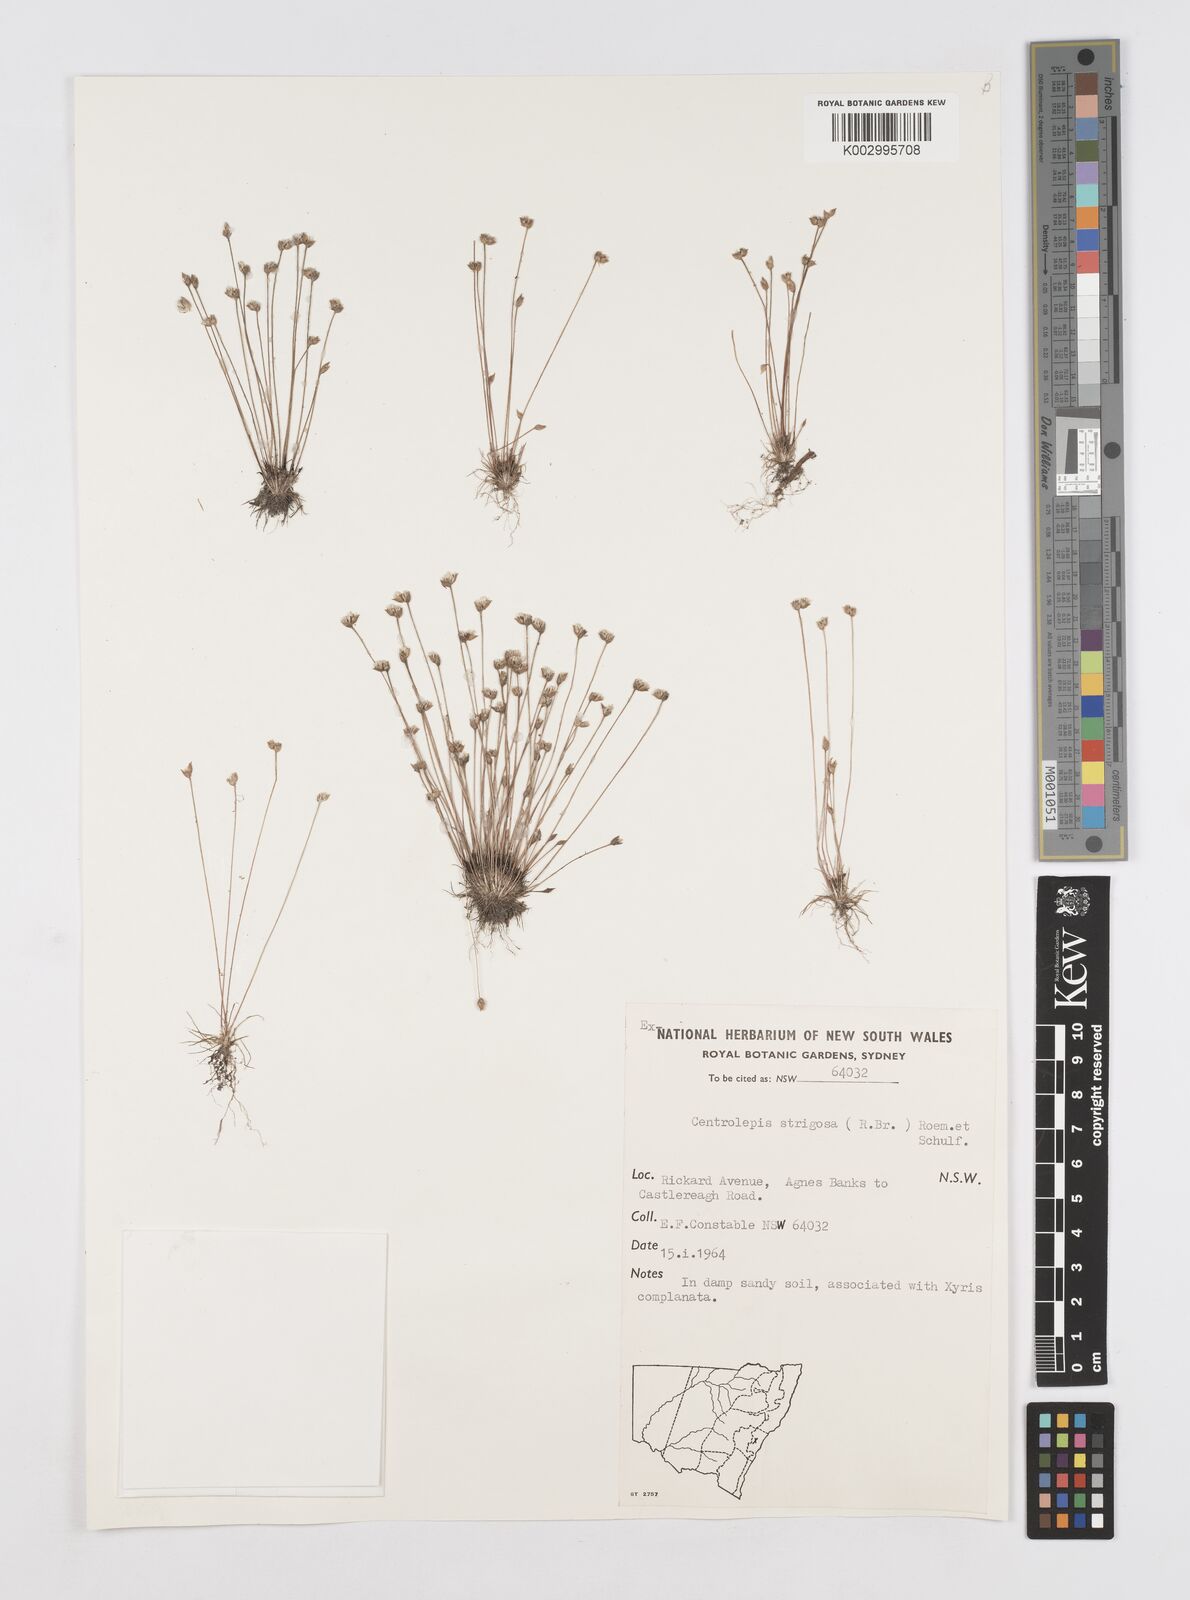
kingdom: Plantae
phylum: Tracheophyta
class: Liliopsida
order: Poales
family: Restionaceae
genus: Centrolepis
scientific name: Centrolepis strigosa
